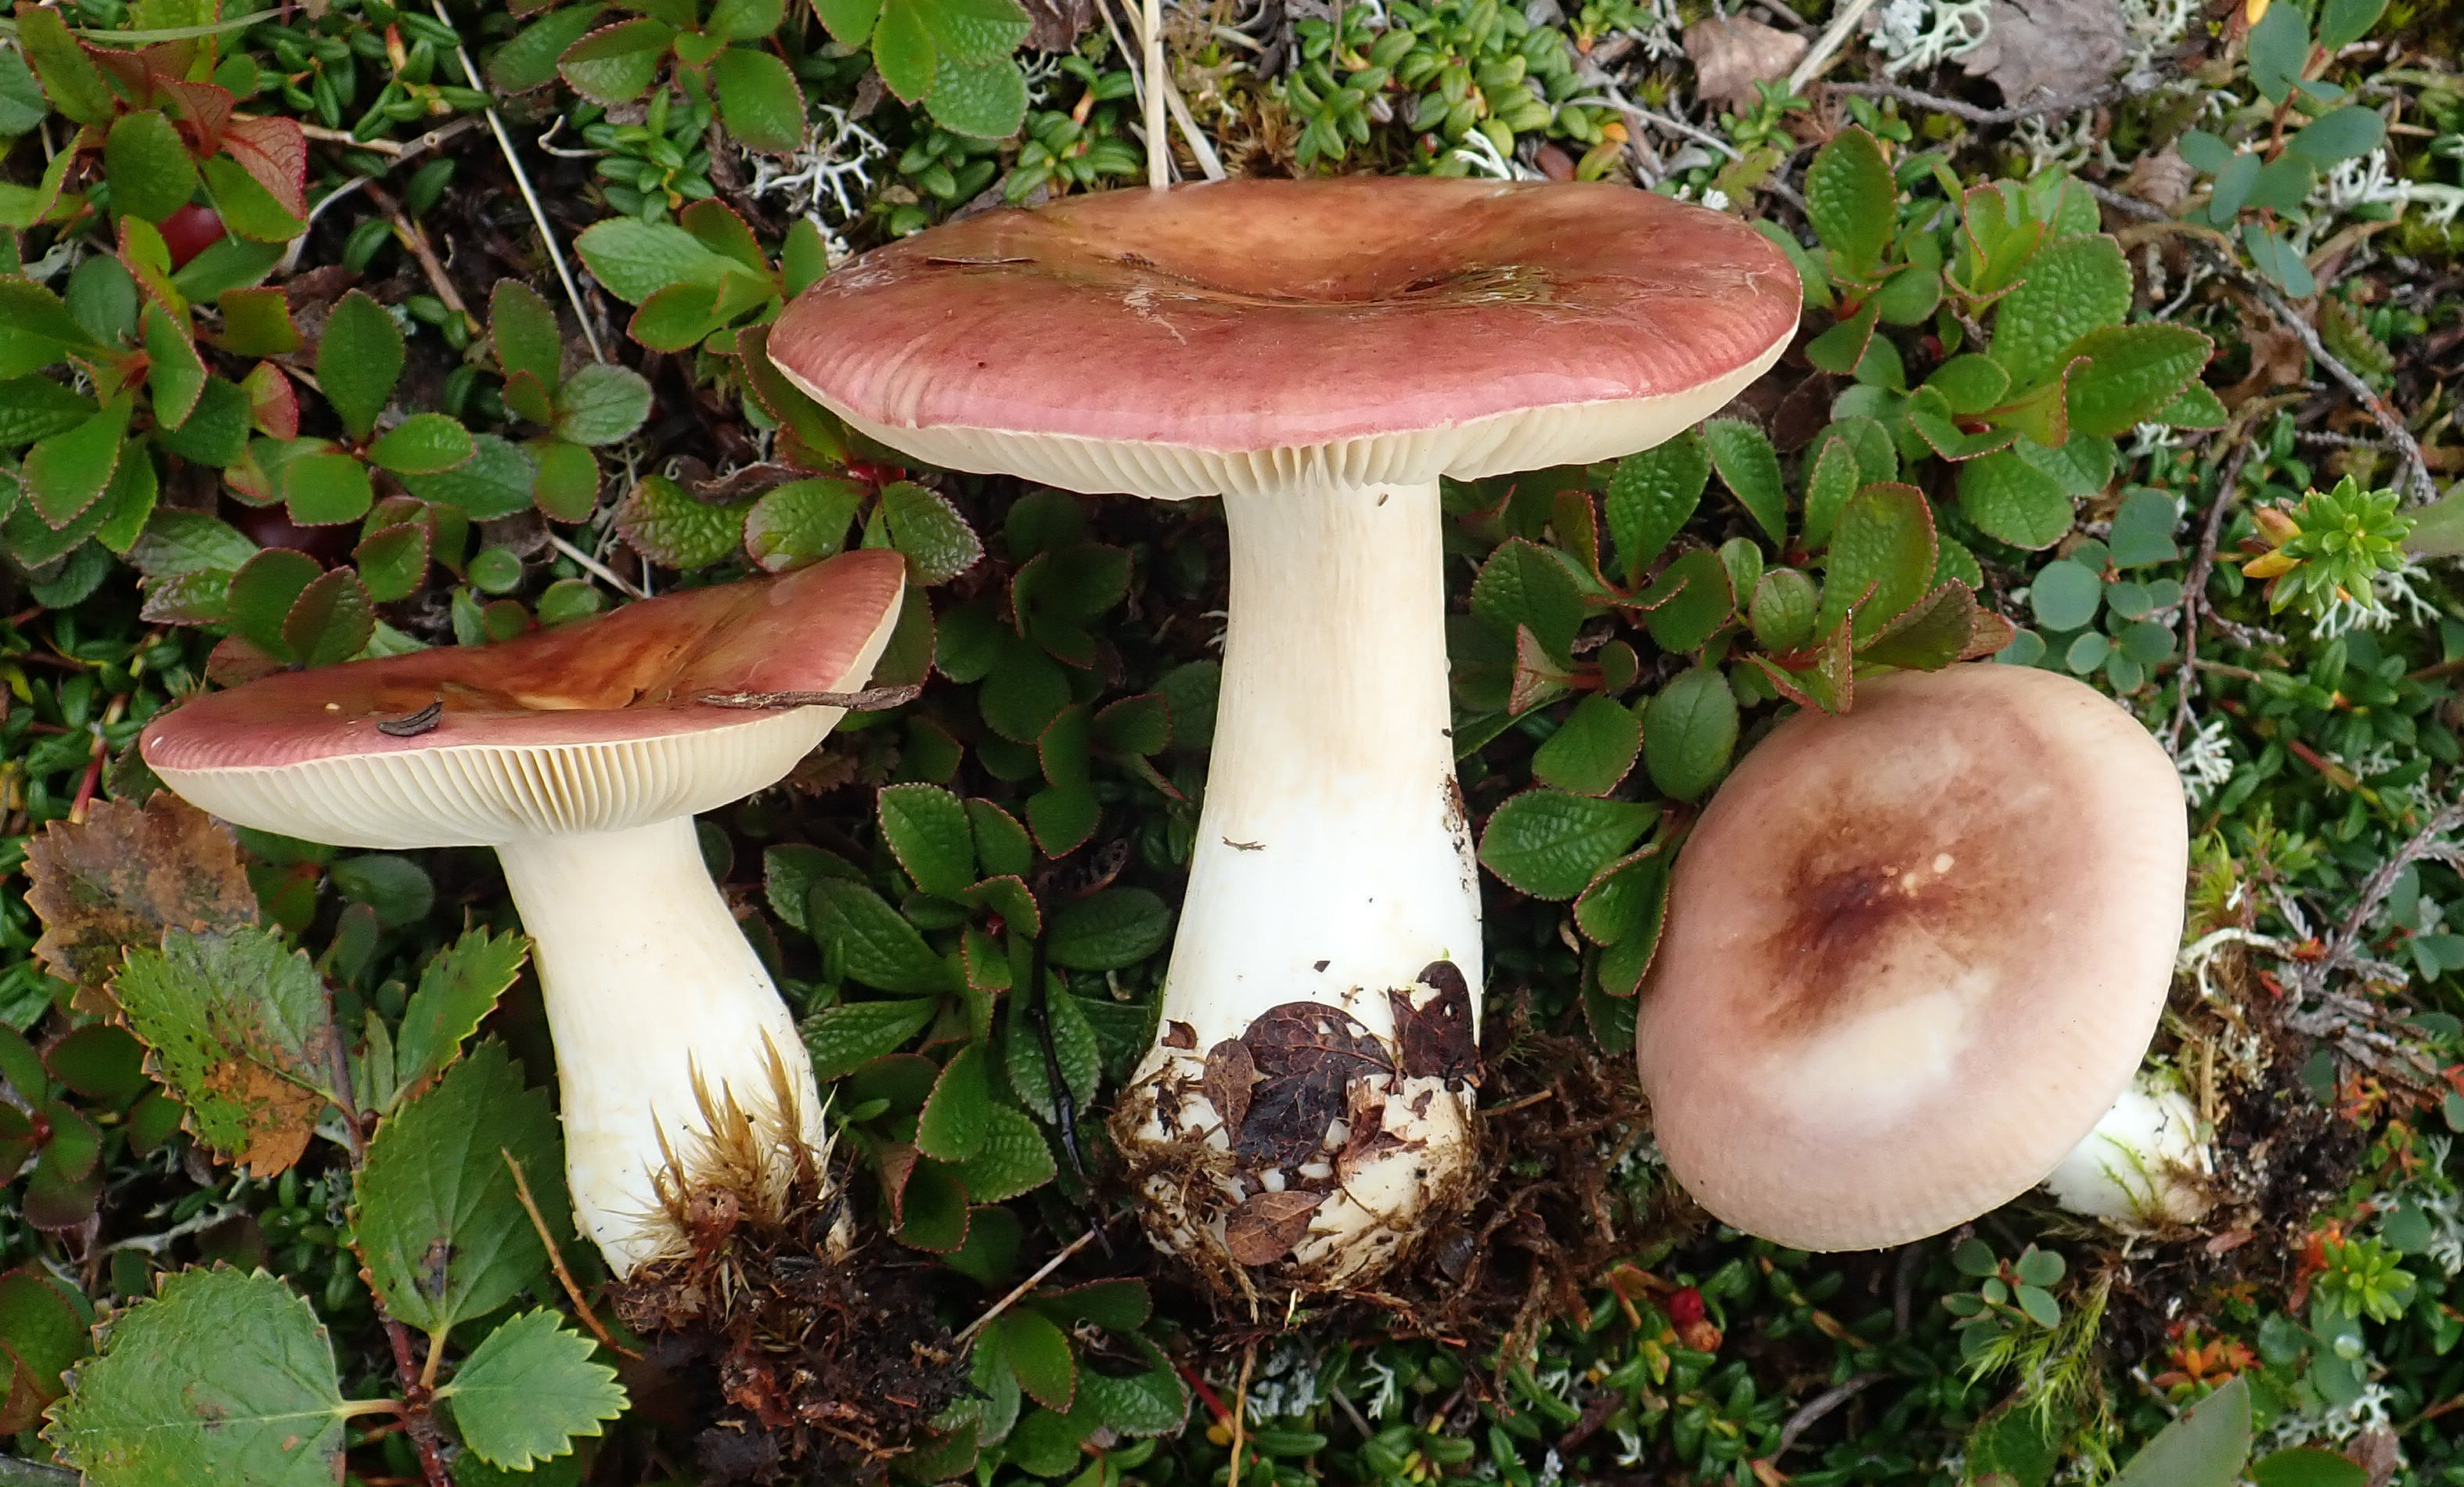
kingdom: Fungi
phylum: Basidiomycota
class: Agaricomycetes
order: Russulales
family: Russulaceae
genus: Russula
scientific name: Russula nitida
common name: Purple swamp brittlegill
